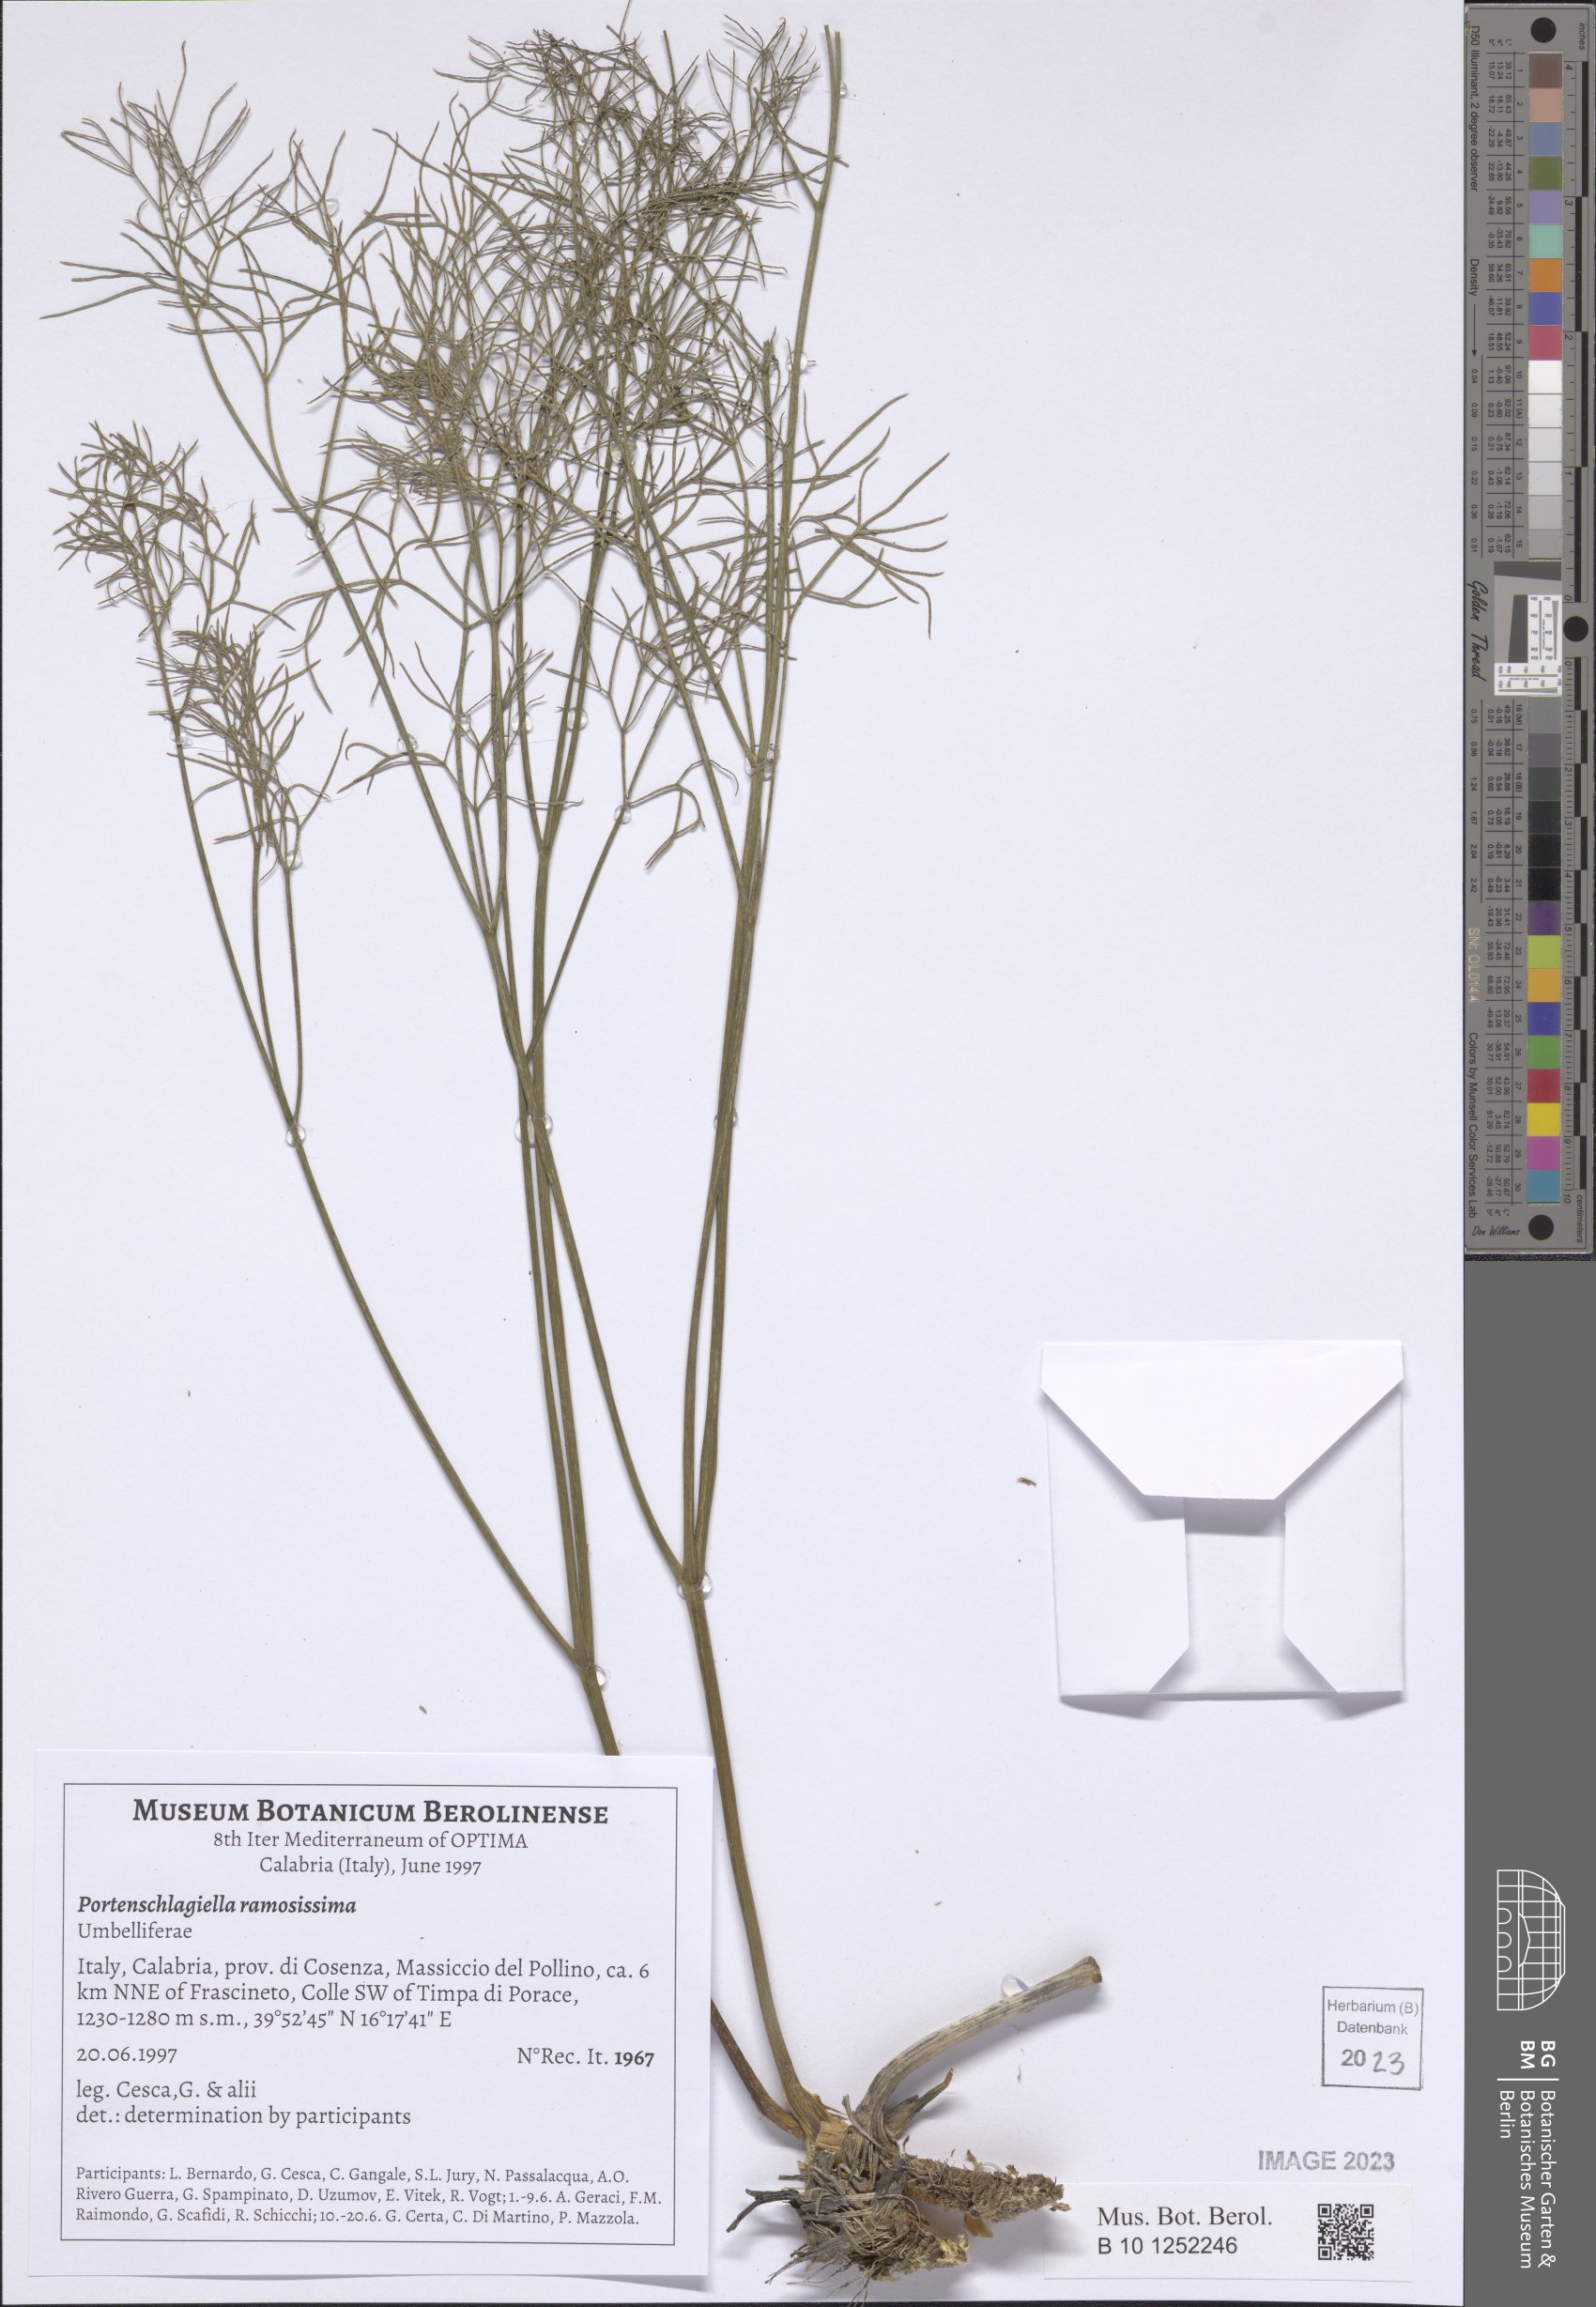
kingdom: Plantae
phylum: Tracheophyta
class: Magnoliopsida
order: Apiales
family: Apiaceae
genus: Athamanta
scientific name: Athamanta ramosissima
